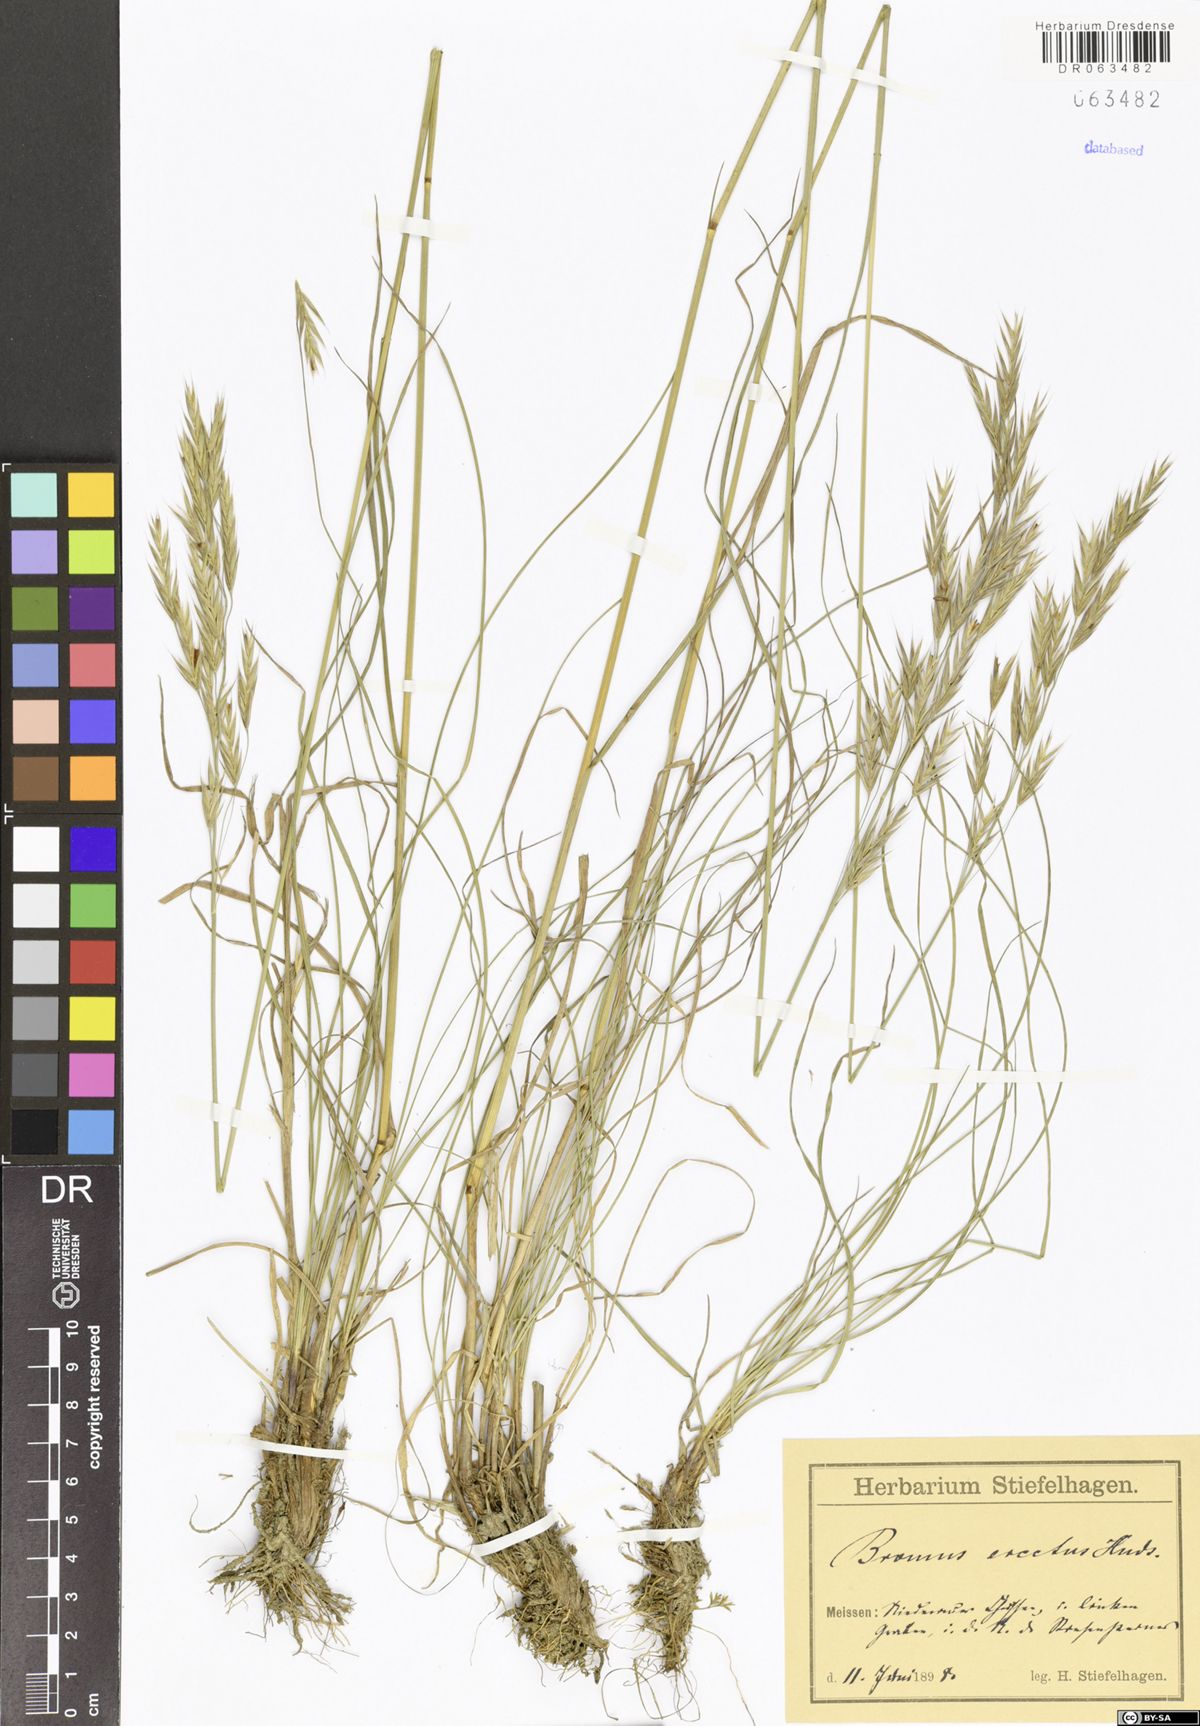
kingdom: Plantae
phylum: Tracheophyta
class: Liliopsida
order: Poales
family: Poaceae
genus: Bromus
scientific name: Bromus erectus
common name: Erect brome
